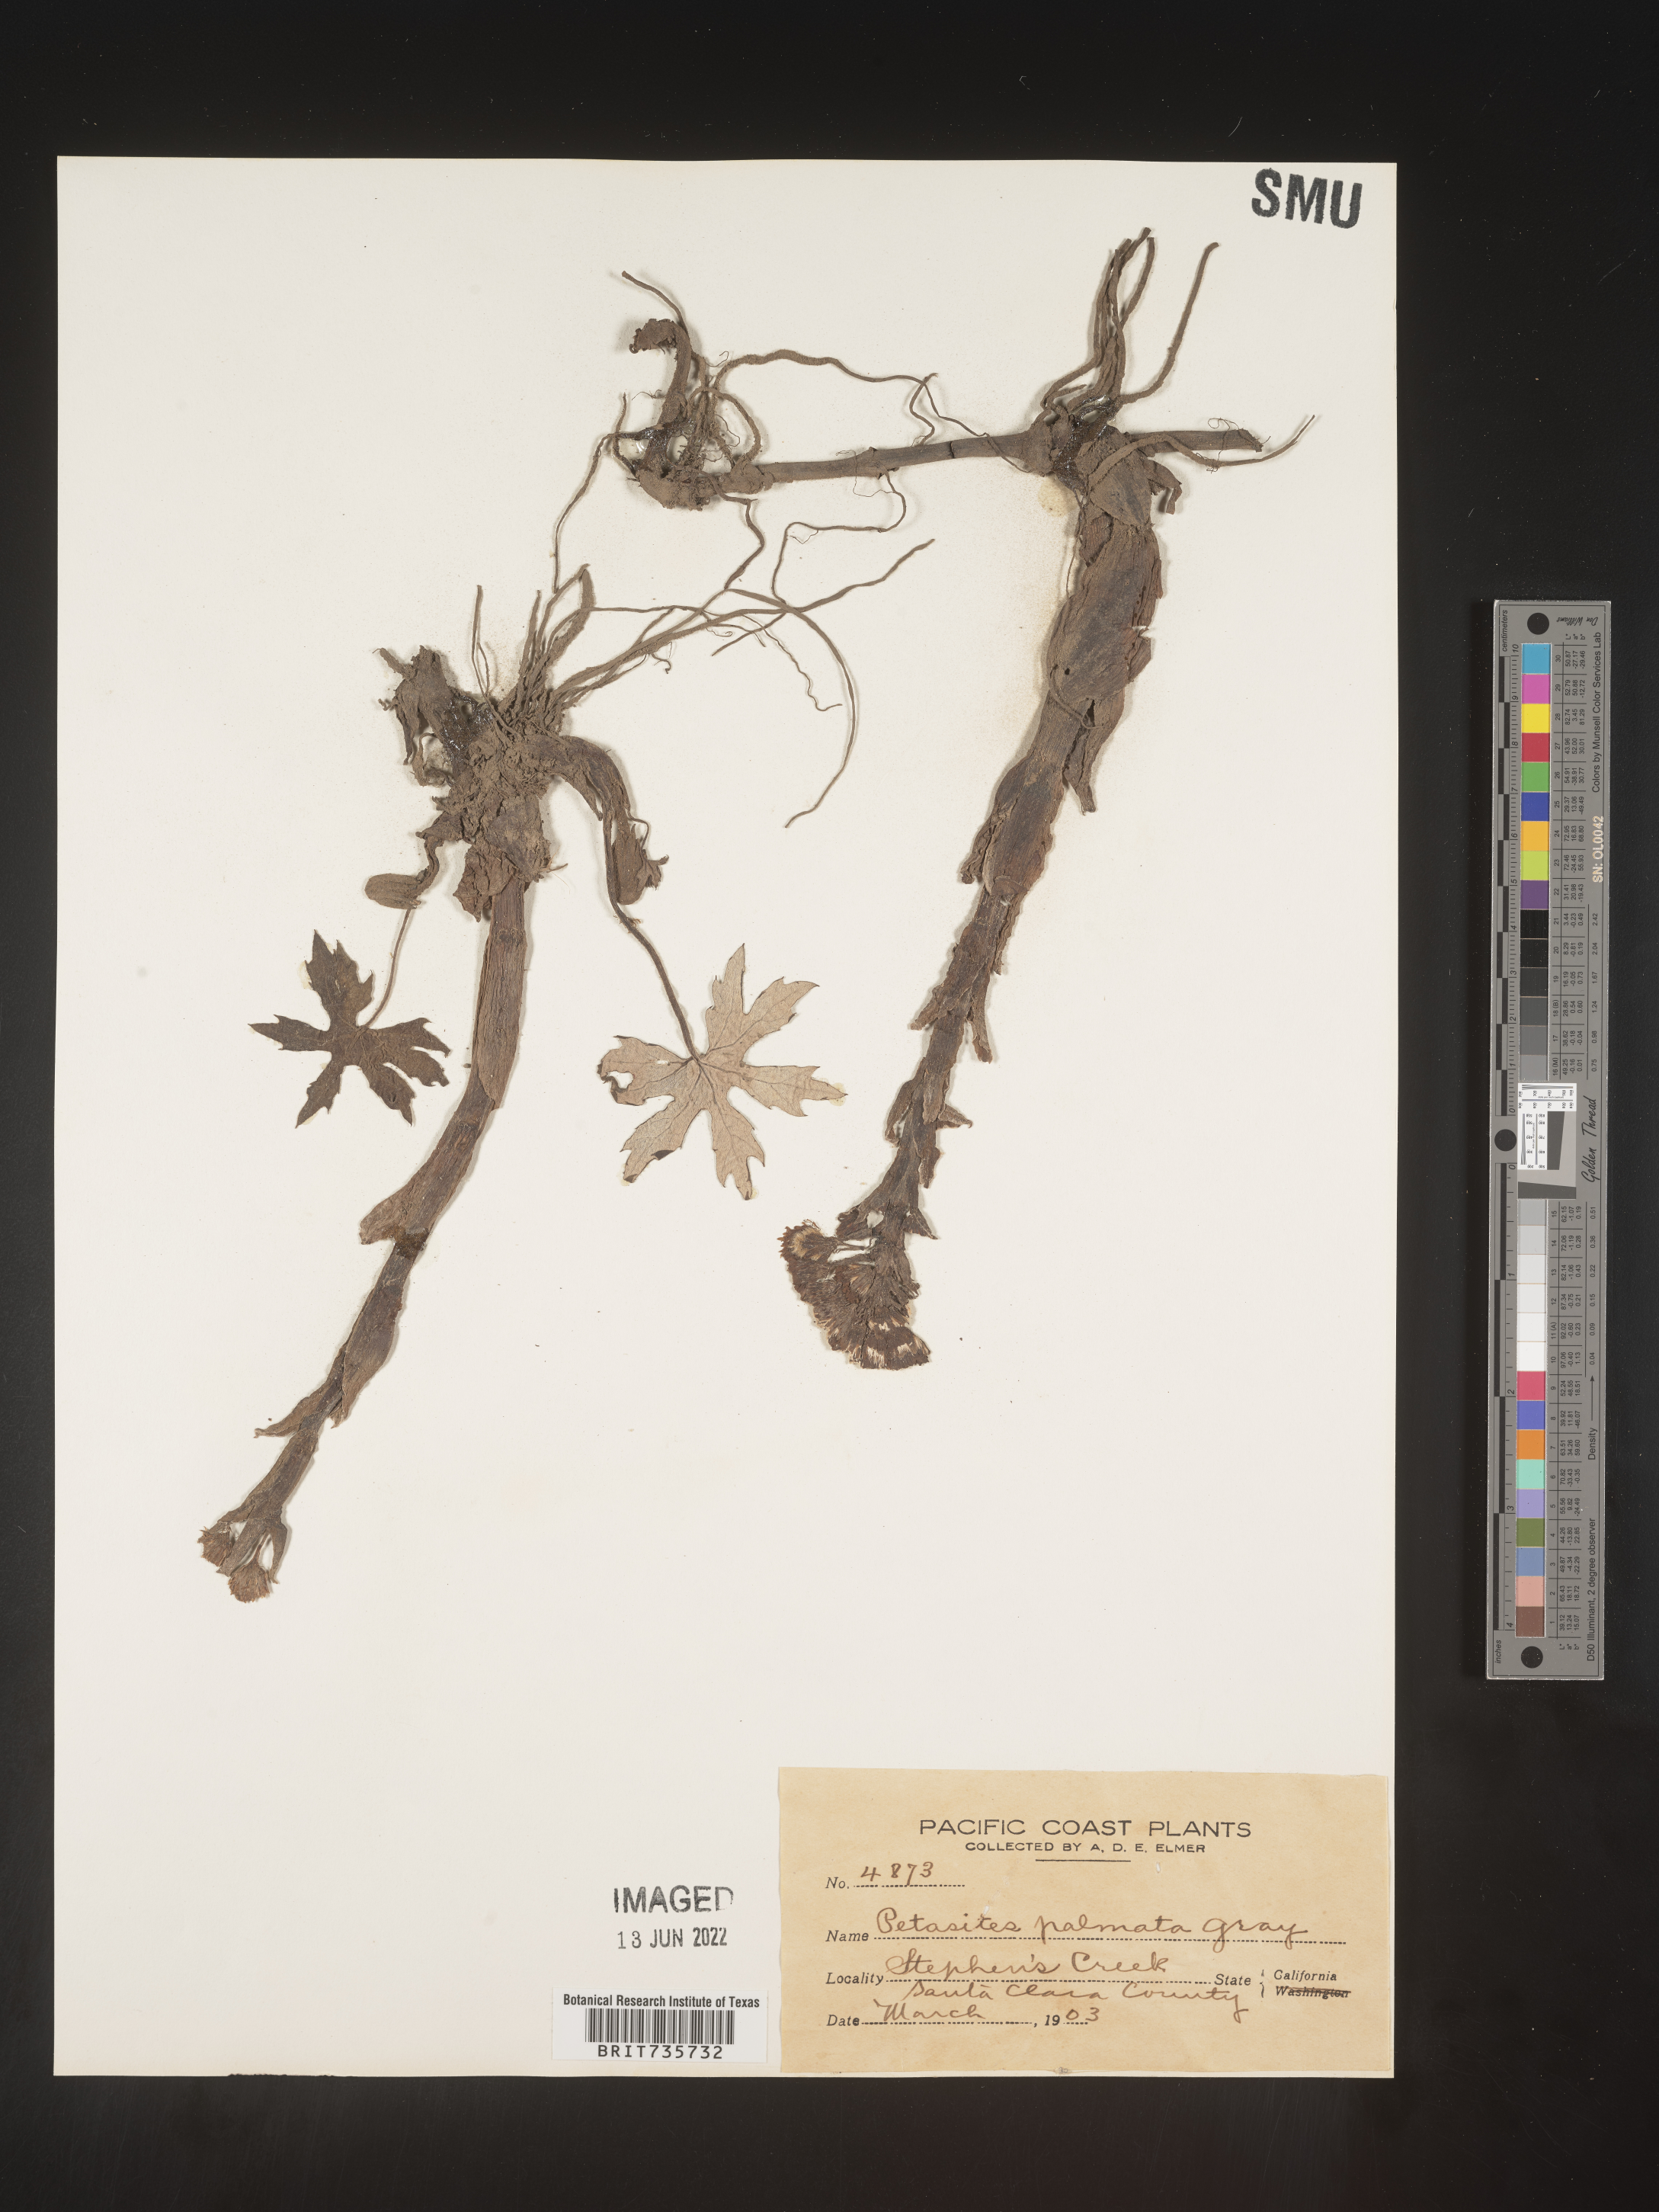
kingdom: Plantae
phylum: Tracheophyta
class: Magnoliopsida
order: Asterales
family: Asteraceae
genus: Petasites
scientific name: Petasites frigidus
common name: Arctic butterbur
